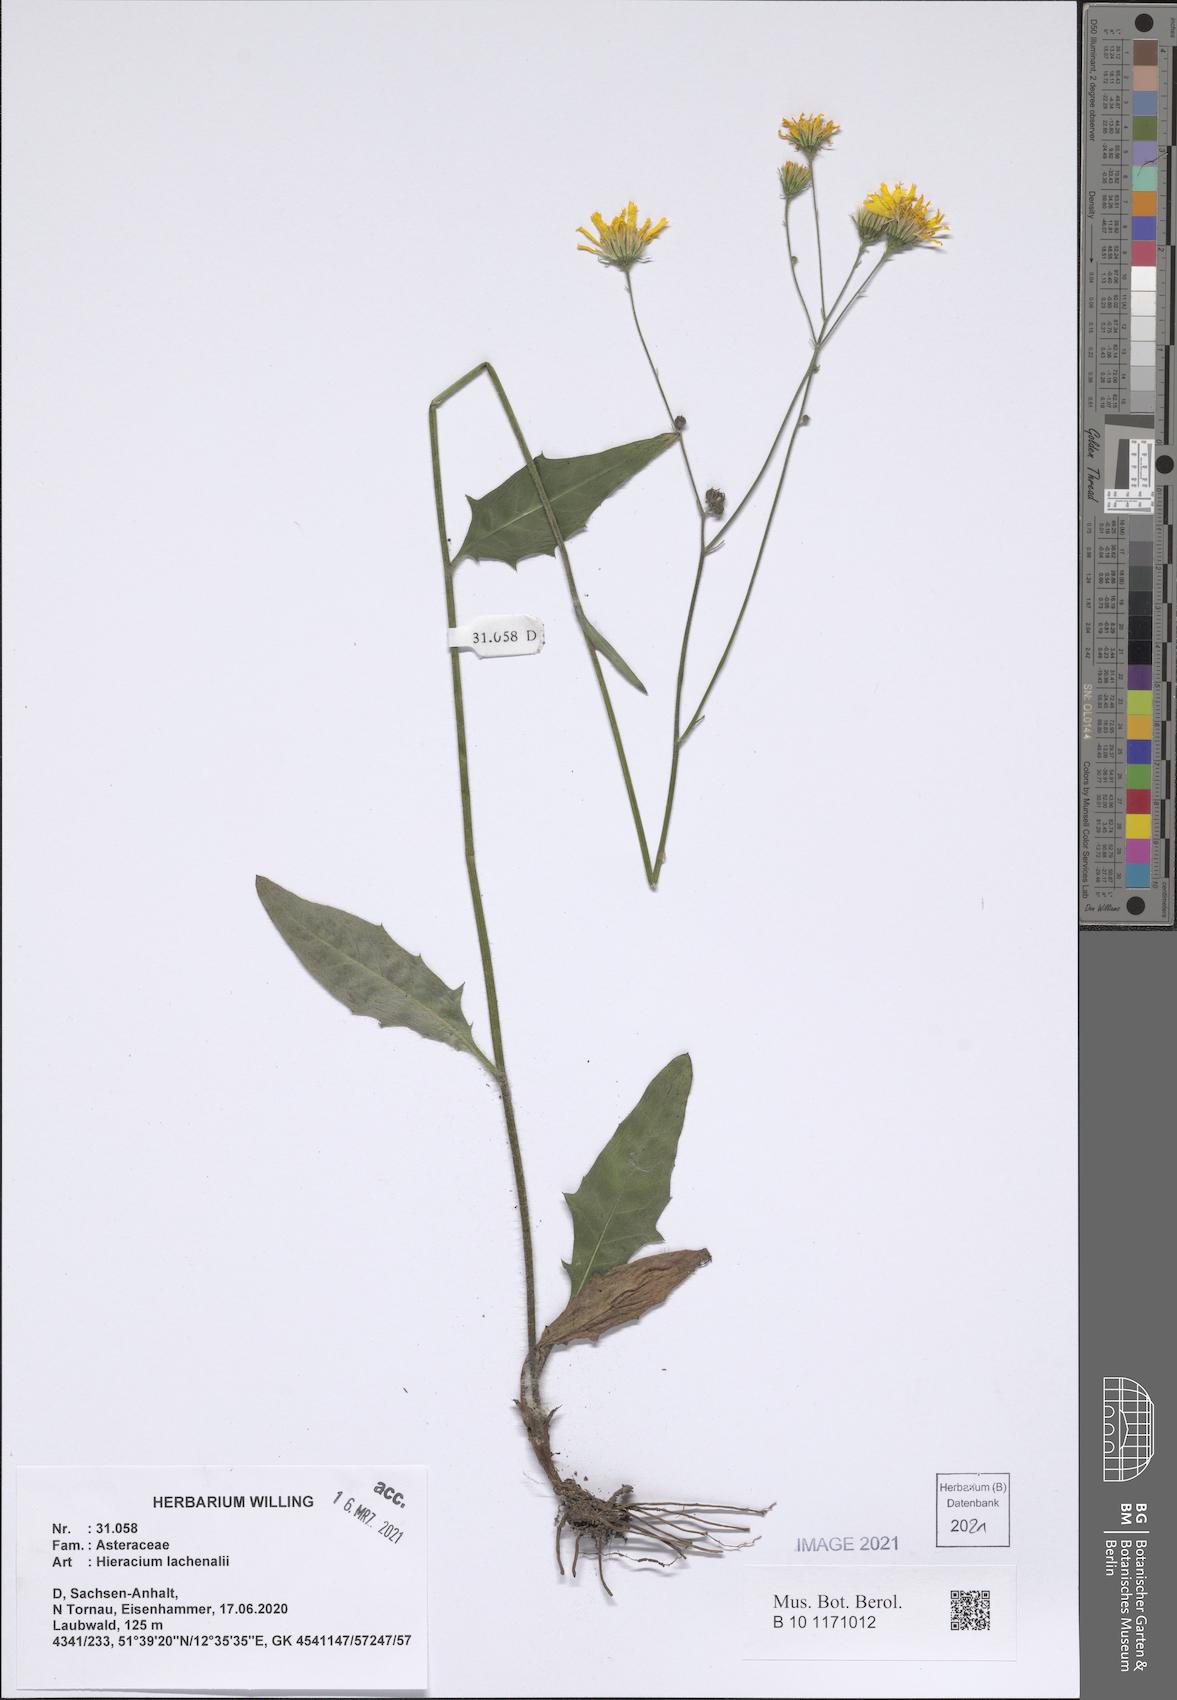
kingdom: Plantae
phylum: Tracheophyta
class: Magnoliopsida
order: Asterales
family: Asteraceae
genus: Hieracium
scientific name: Hieracium lachenalii
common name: Common hawkweed
